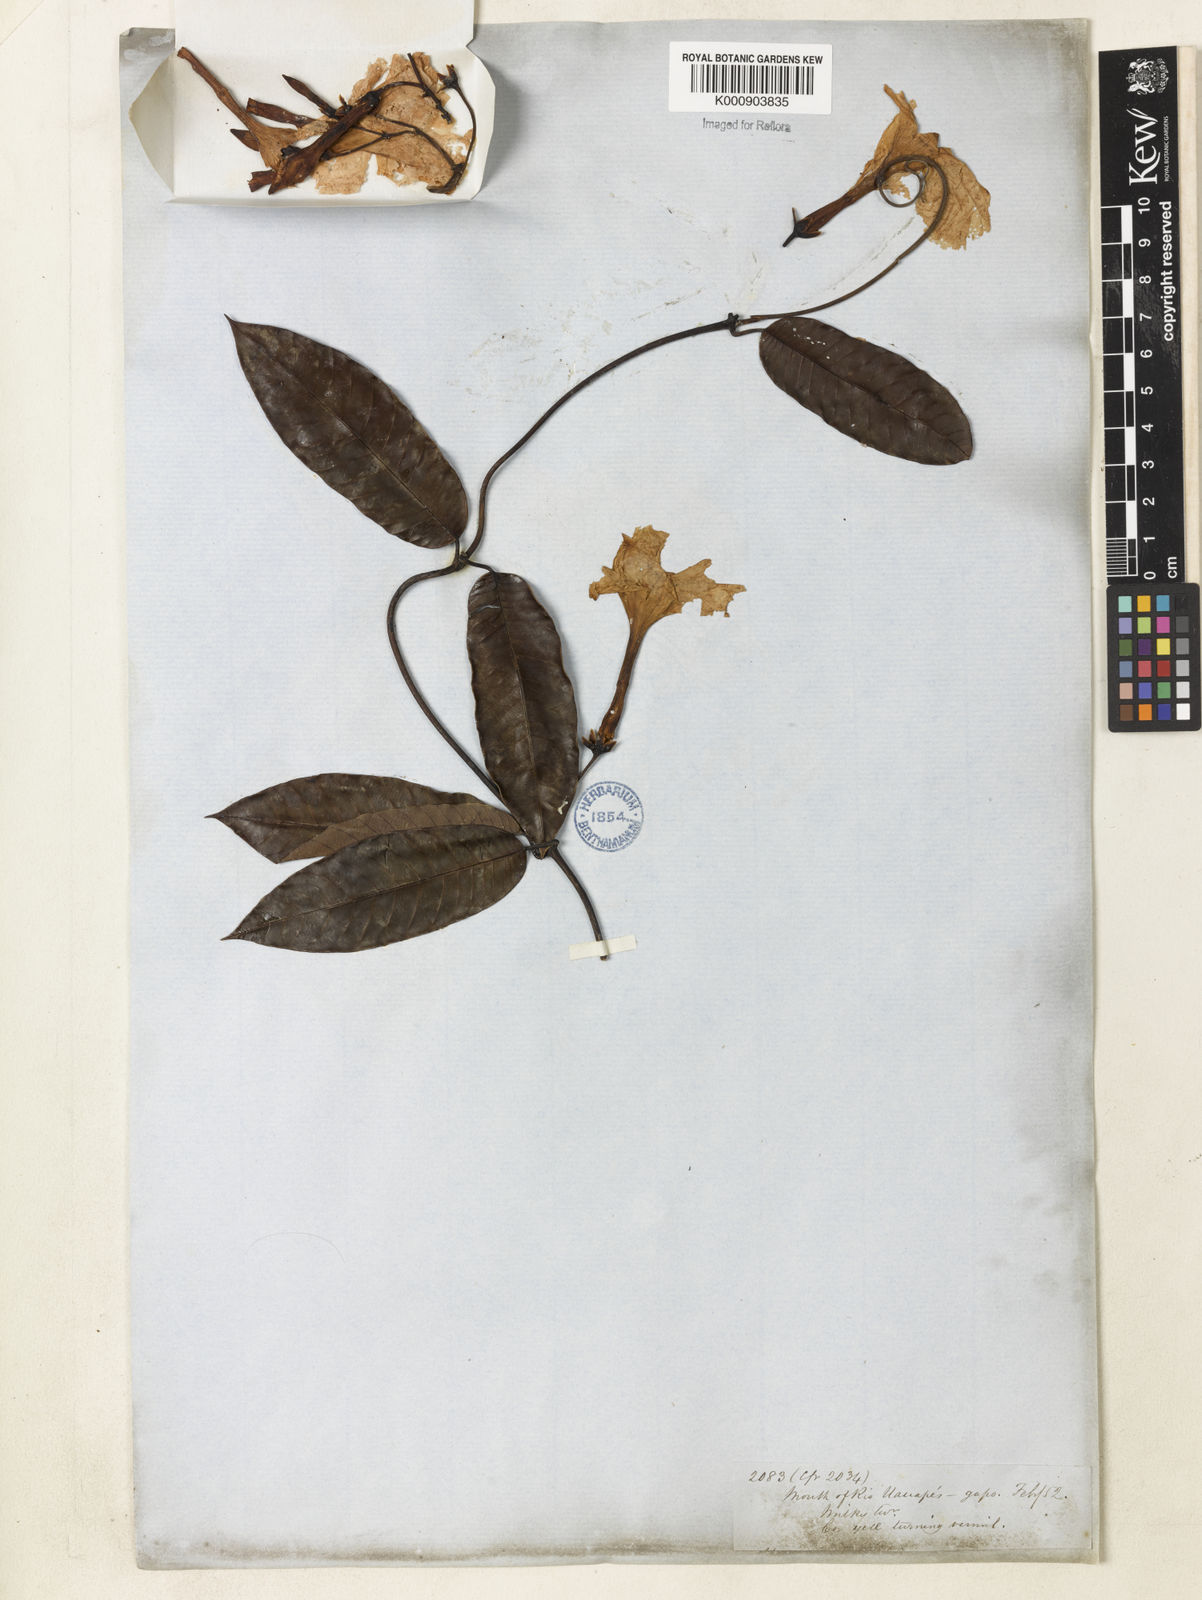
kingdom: Plantae
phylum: Tracheophyta
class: Magnoliopsida
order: Gentianales
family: Apocynaceae
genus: Odontadenia
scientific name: Odontadenia
